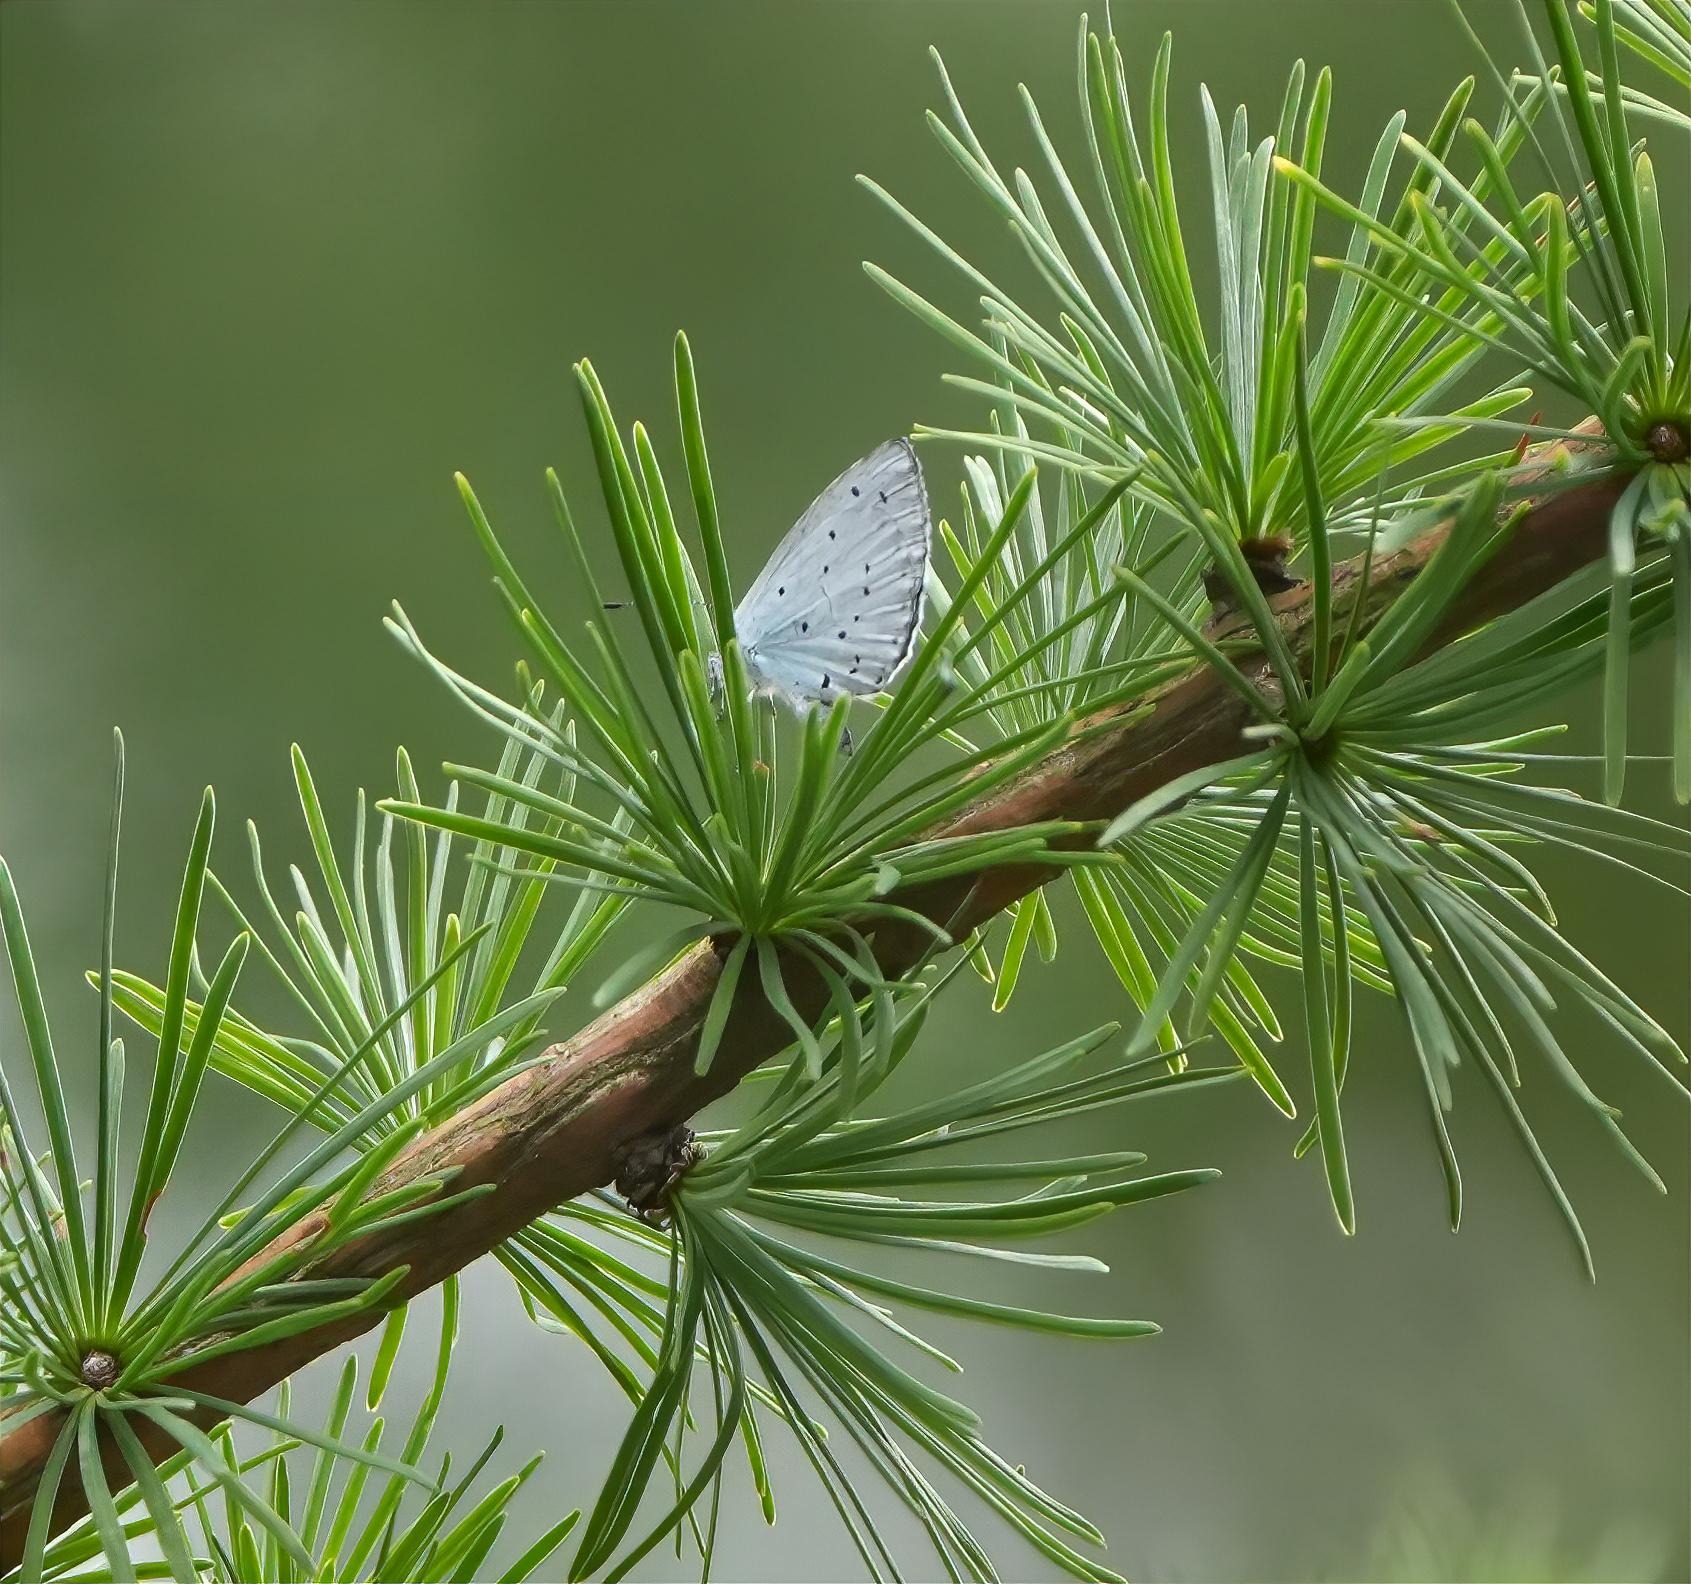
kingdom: Animalia
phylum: Arthropoda
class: Insecta
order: Lepidoptera
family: Lycaenidae
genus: Celastrina
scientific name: Celastrina argiolus
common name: Skovblåfugl
